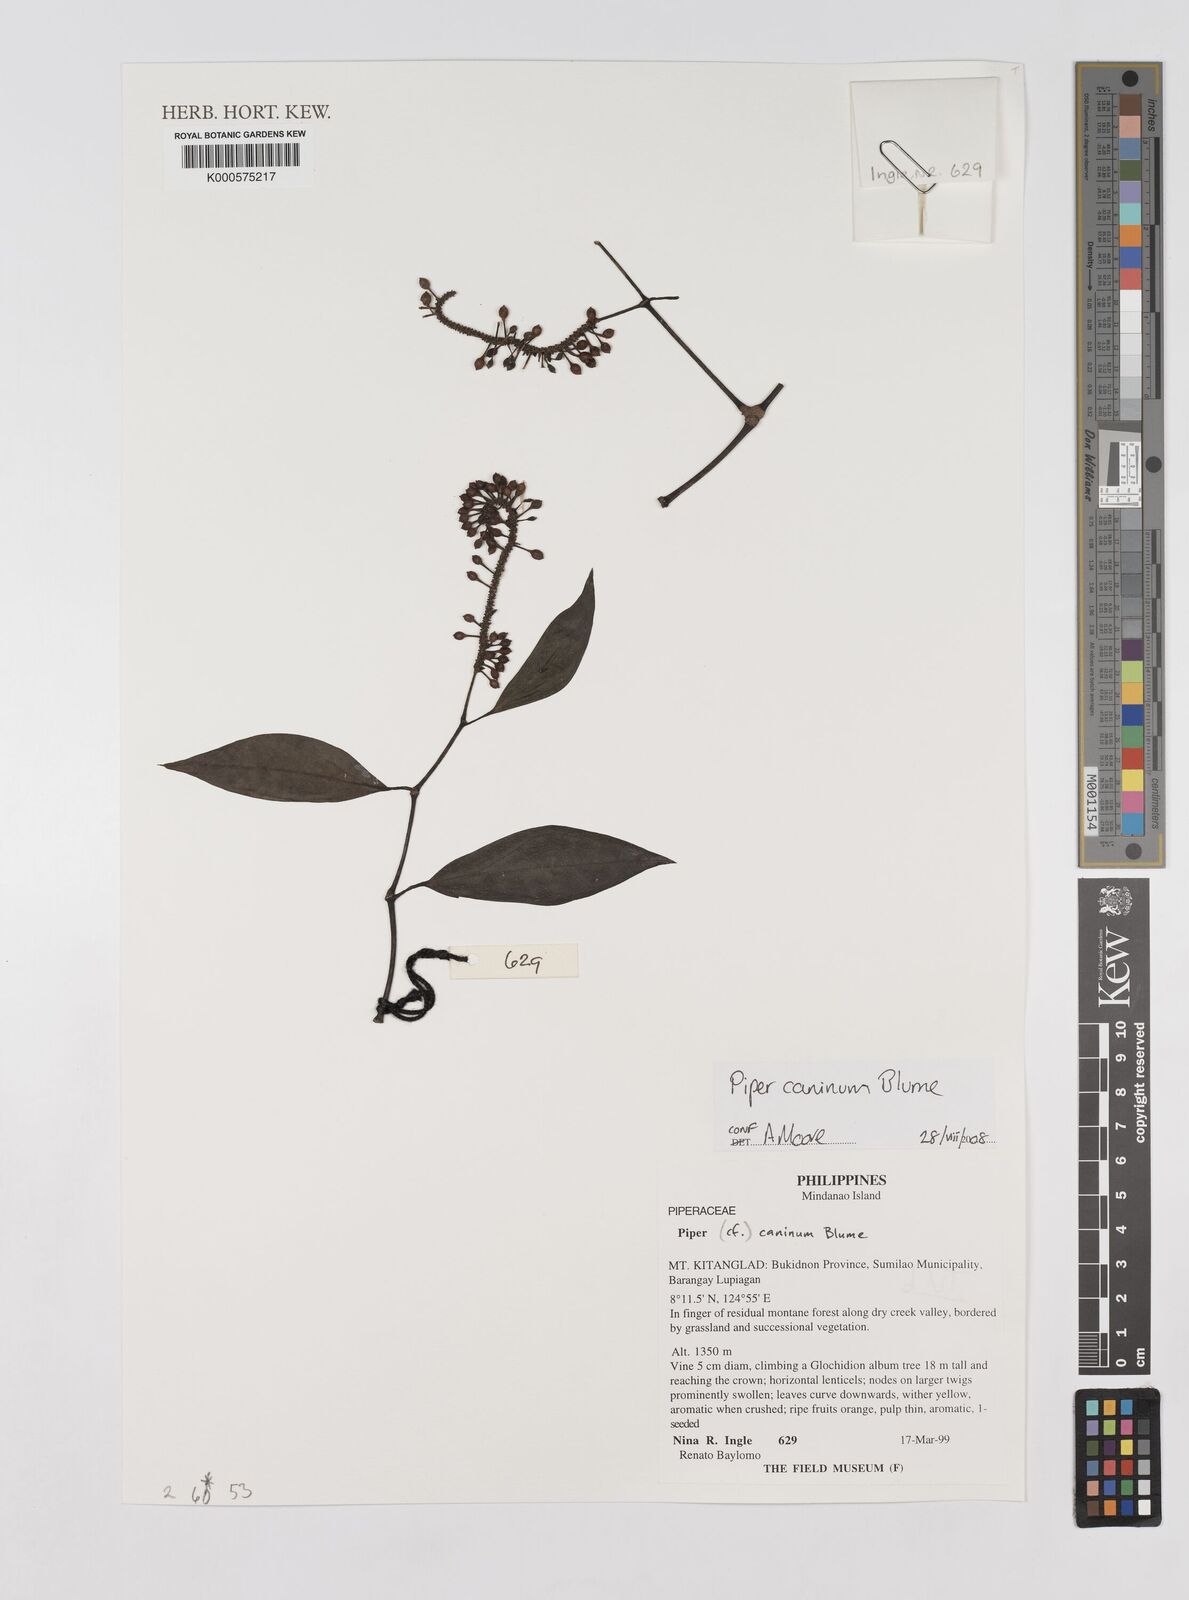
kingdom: Plantae
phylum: Tracheophyta
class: Magnoliopsida
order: Piperales
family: Piperaceae
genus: Piper
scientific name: Piper lanatum
